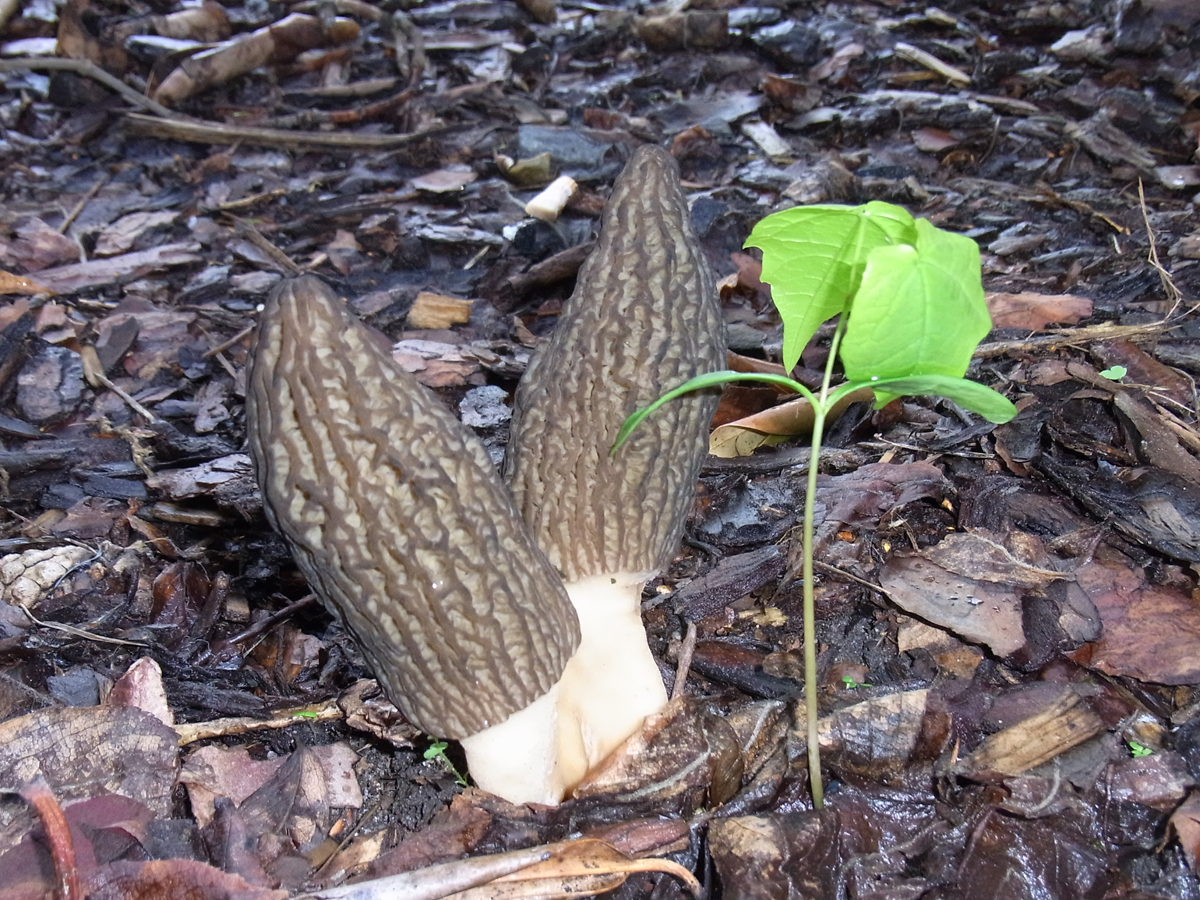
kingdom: Fungi
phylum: Ascomycota
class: Pezizomycetes
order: Pezizales
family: Morchellaceae
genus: Morchella
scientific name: Morchella elata
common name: Black morel
